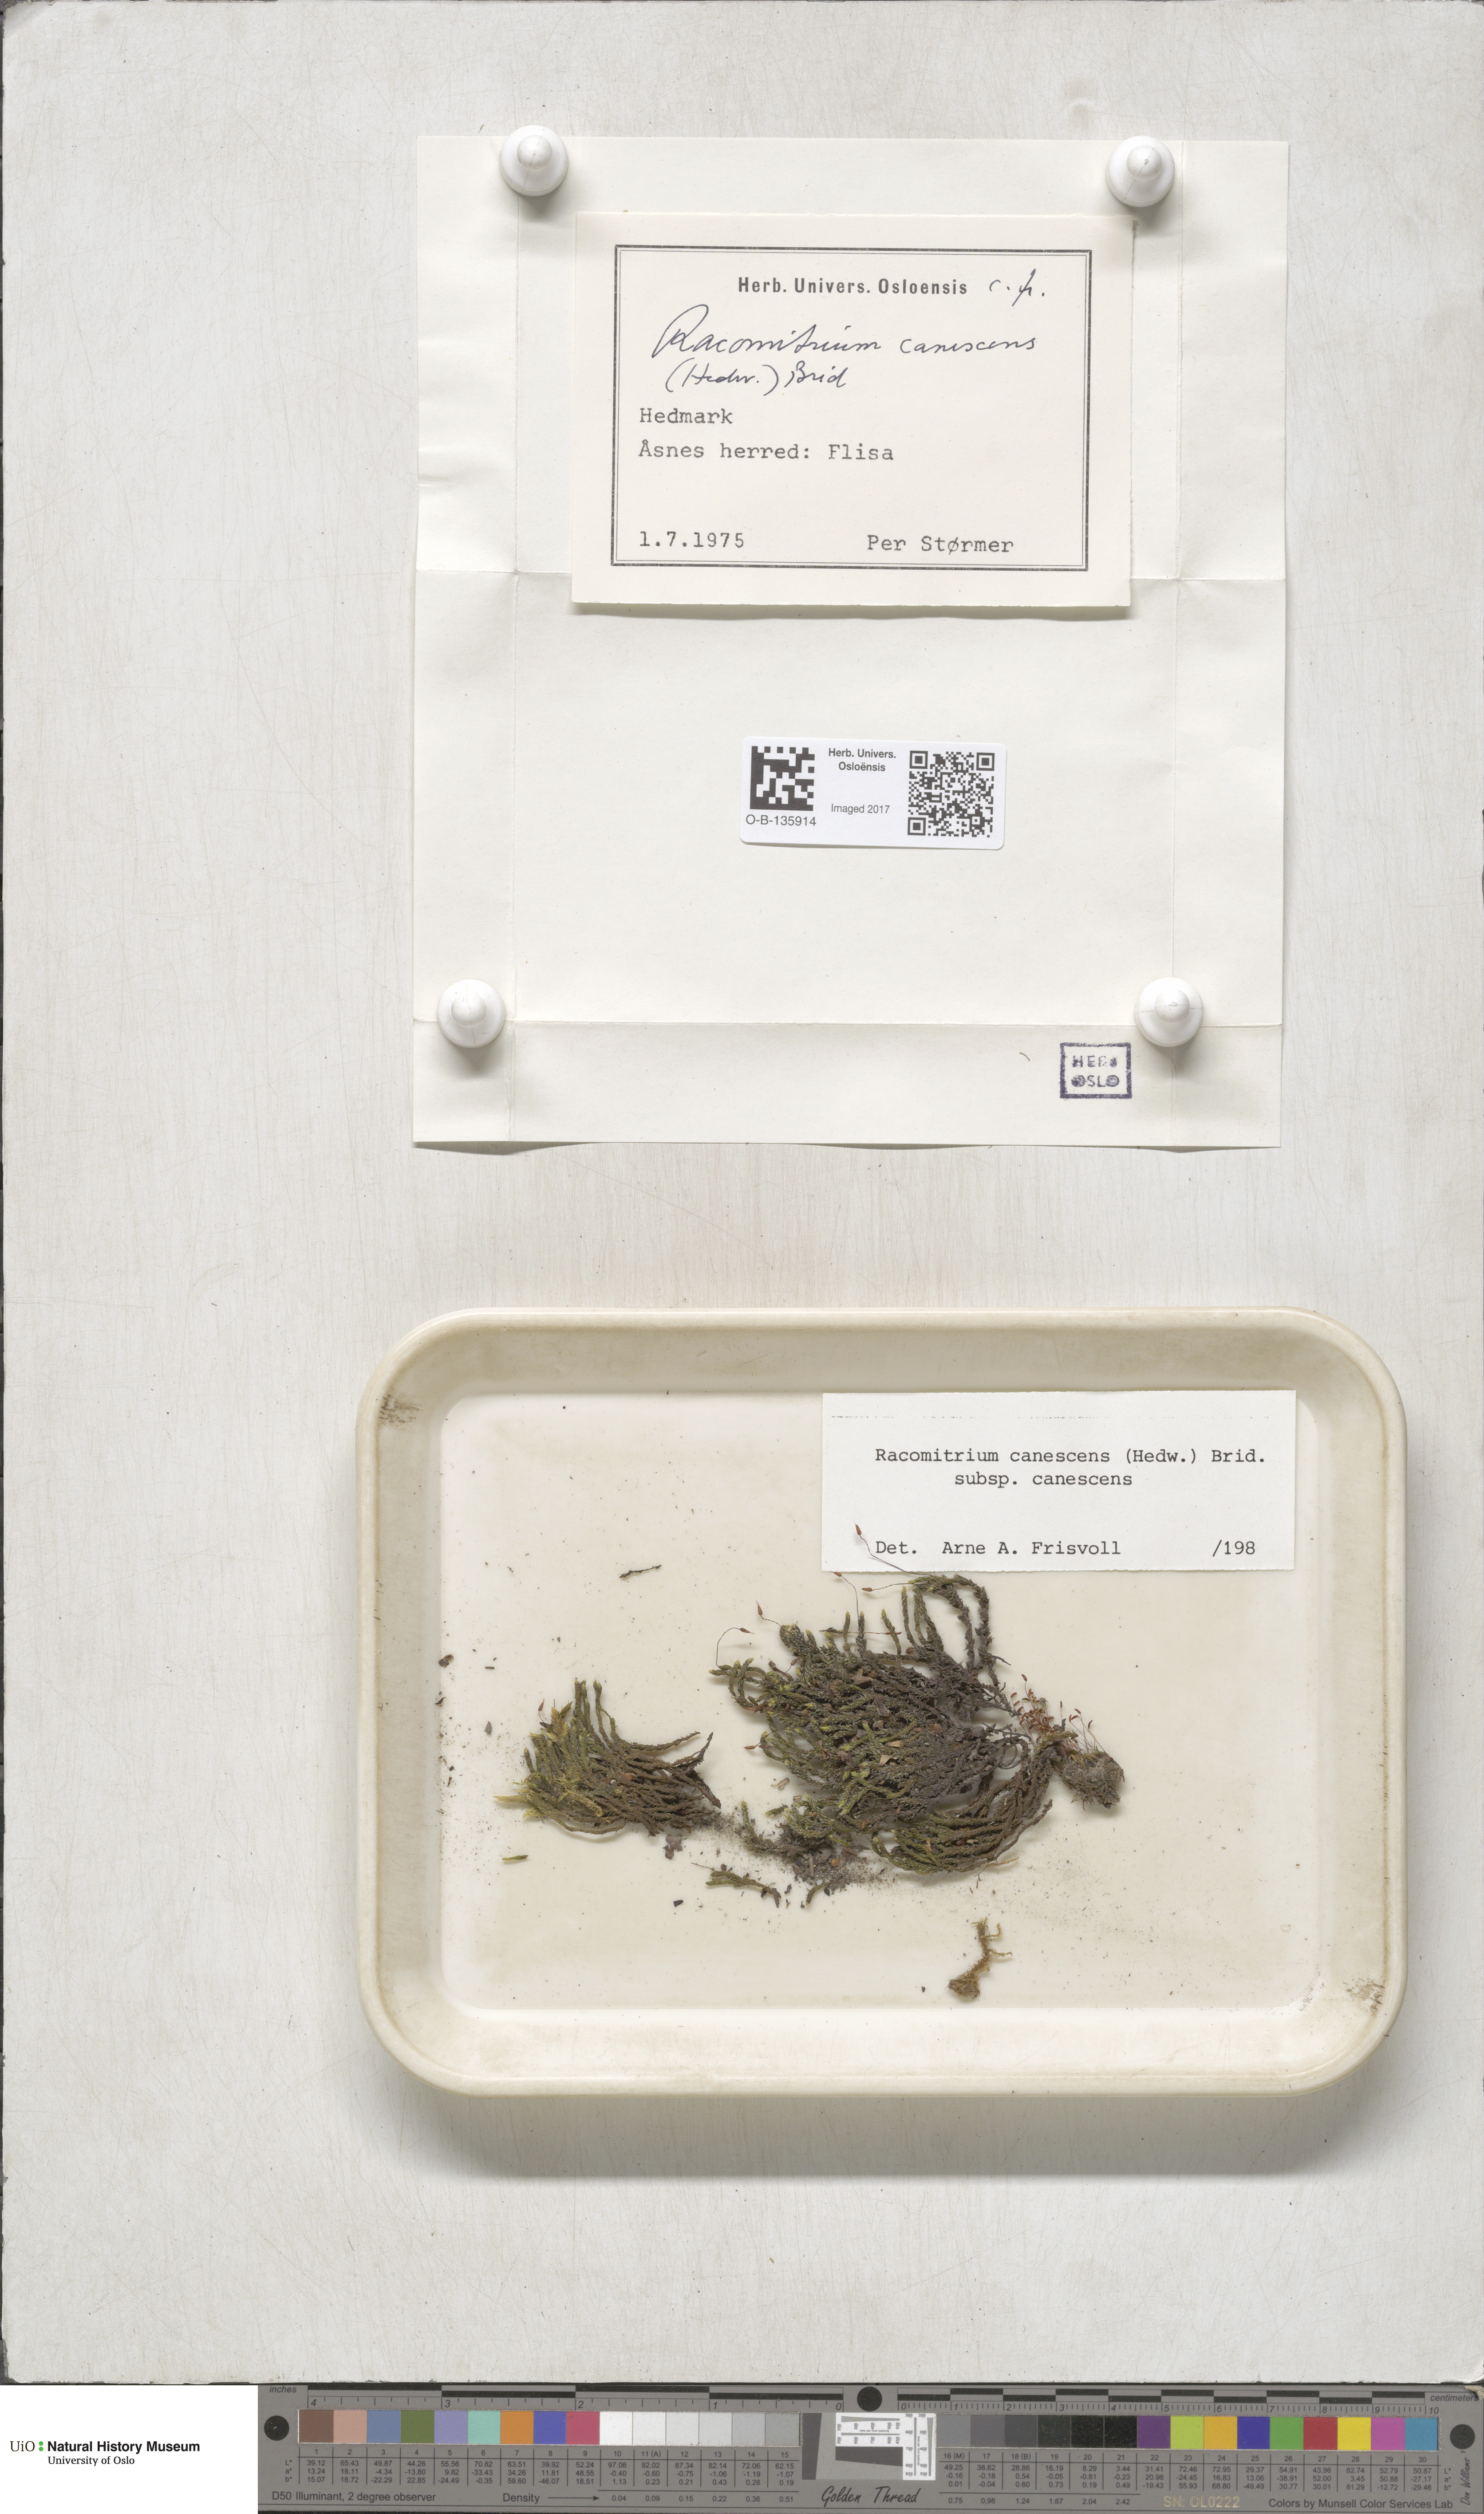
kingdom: Plantae
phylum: Bryophyta
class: Bryopsida
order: Grimmiales
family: Grimmiaceae
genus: Niphotrichum
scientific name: Niphotrichum canescens
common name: Hoary fringe-moss
